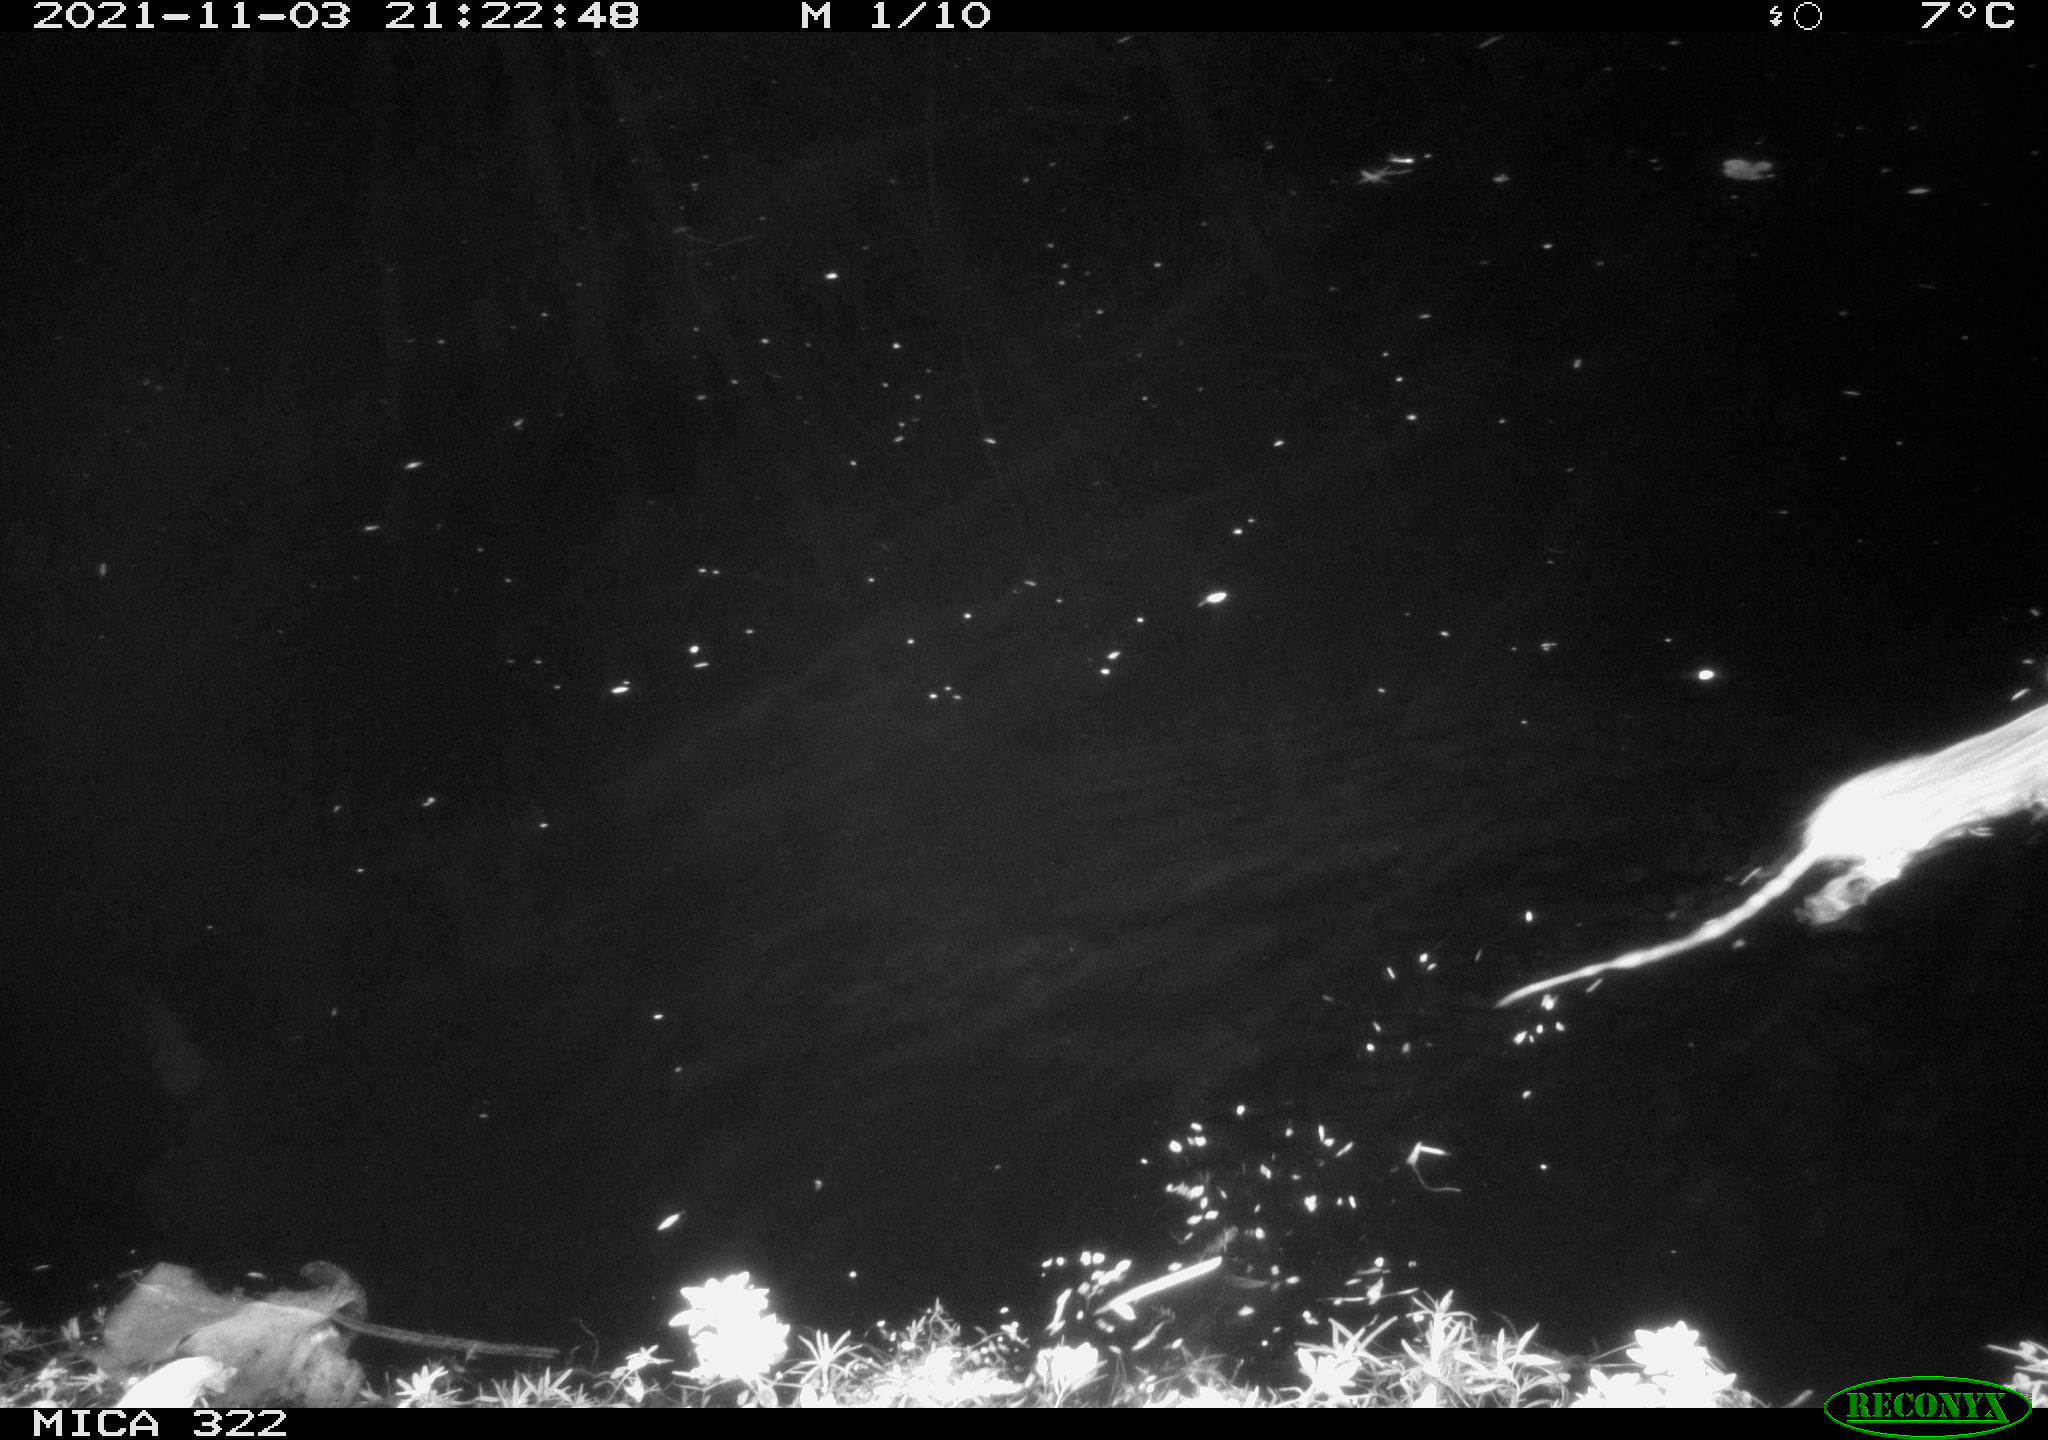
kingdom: Animalia
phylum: Chordata
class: Mammalia
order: Rodentia
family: Muridae
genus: Rattus
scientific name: Rattus norvegicus
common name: Brown rat
